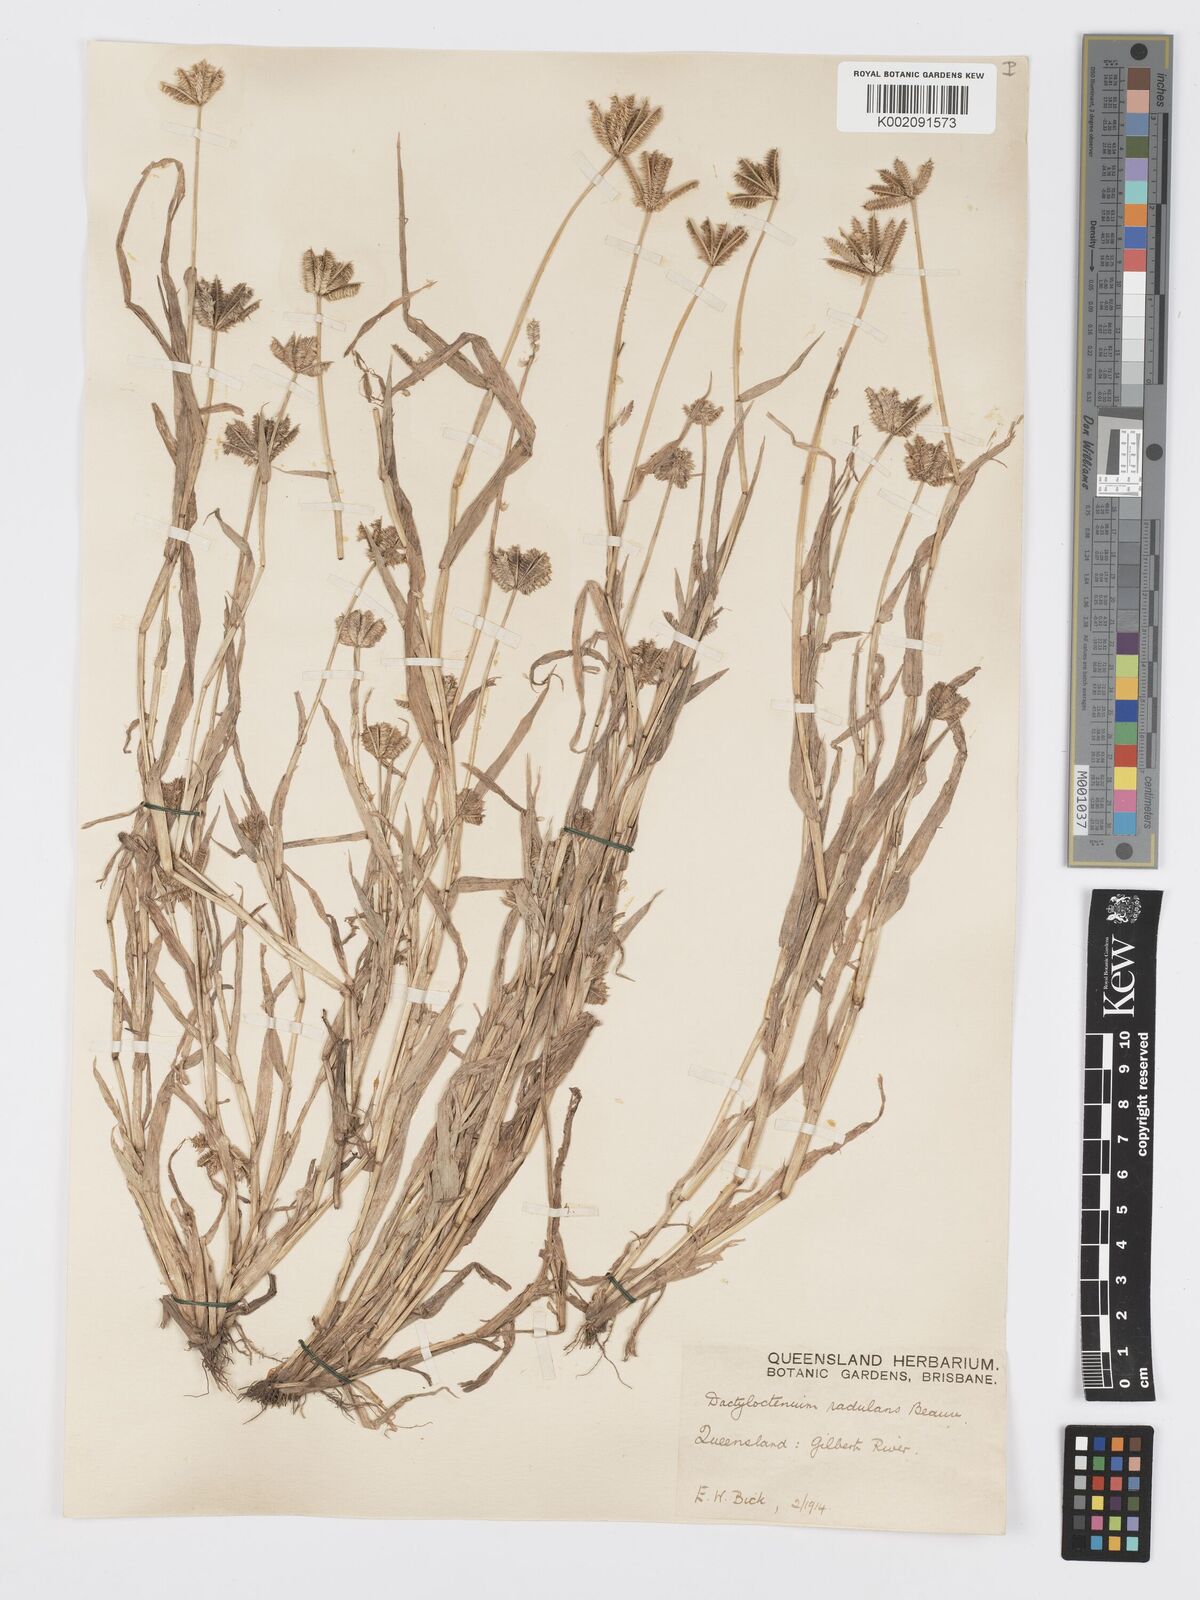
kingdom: Plantae
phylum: Tracheophyta
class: Liliopsida
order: Poales
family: Poaceae
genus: Dactyloctenium
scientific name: Dactyloctenium radulans
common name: Button-grass
